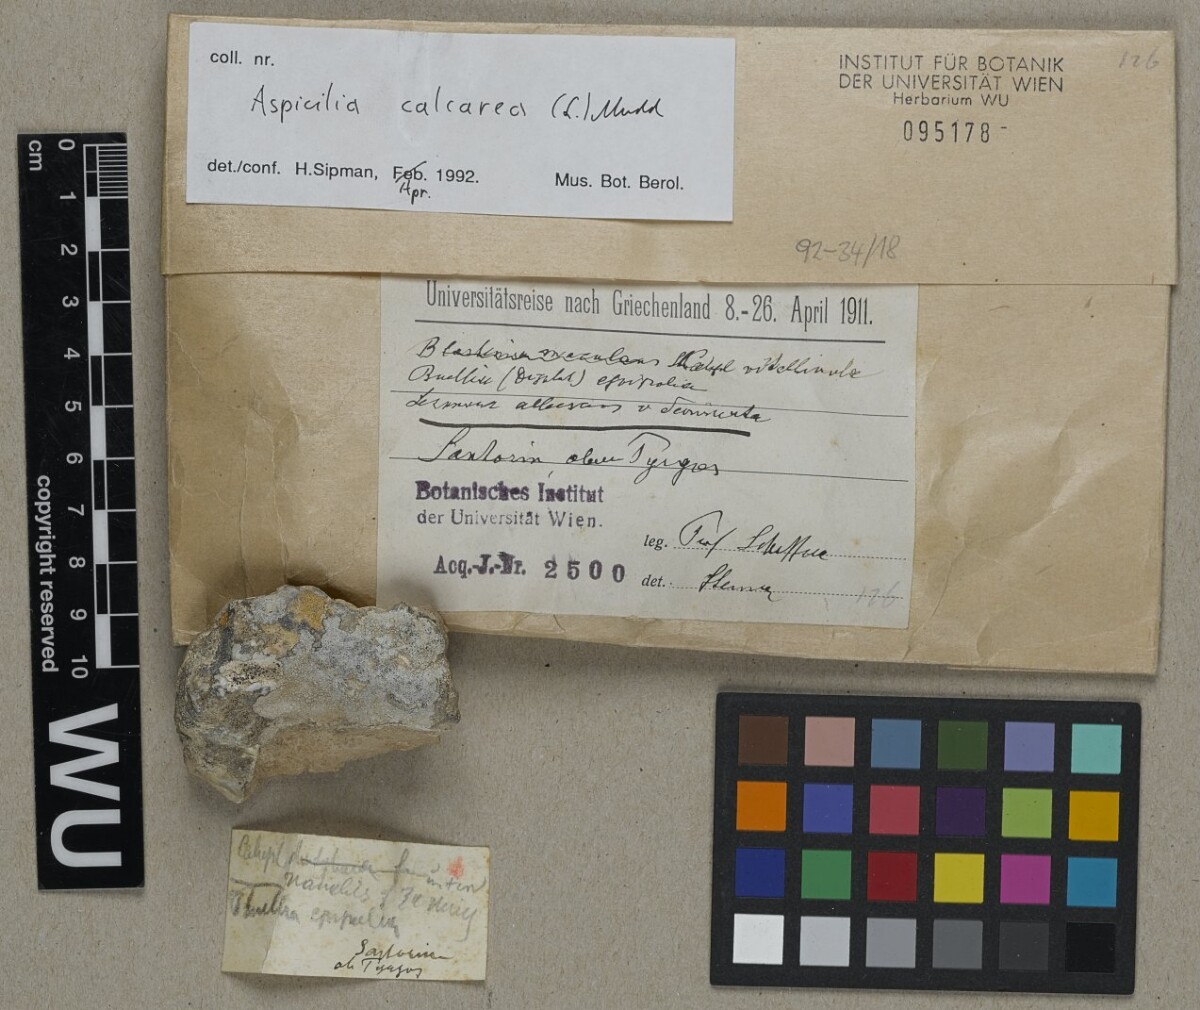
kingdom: Fungi
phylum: Ascomycota
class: Lecanoromycetes
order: Pertusariales
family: Megasporaceae
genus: Circinaria
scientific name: Circinaria calcarea
